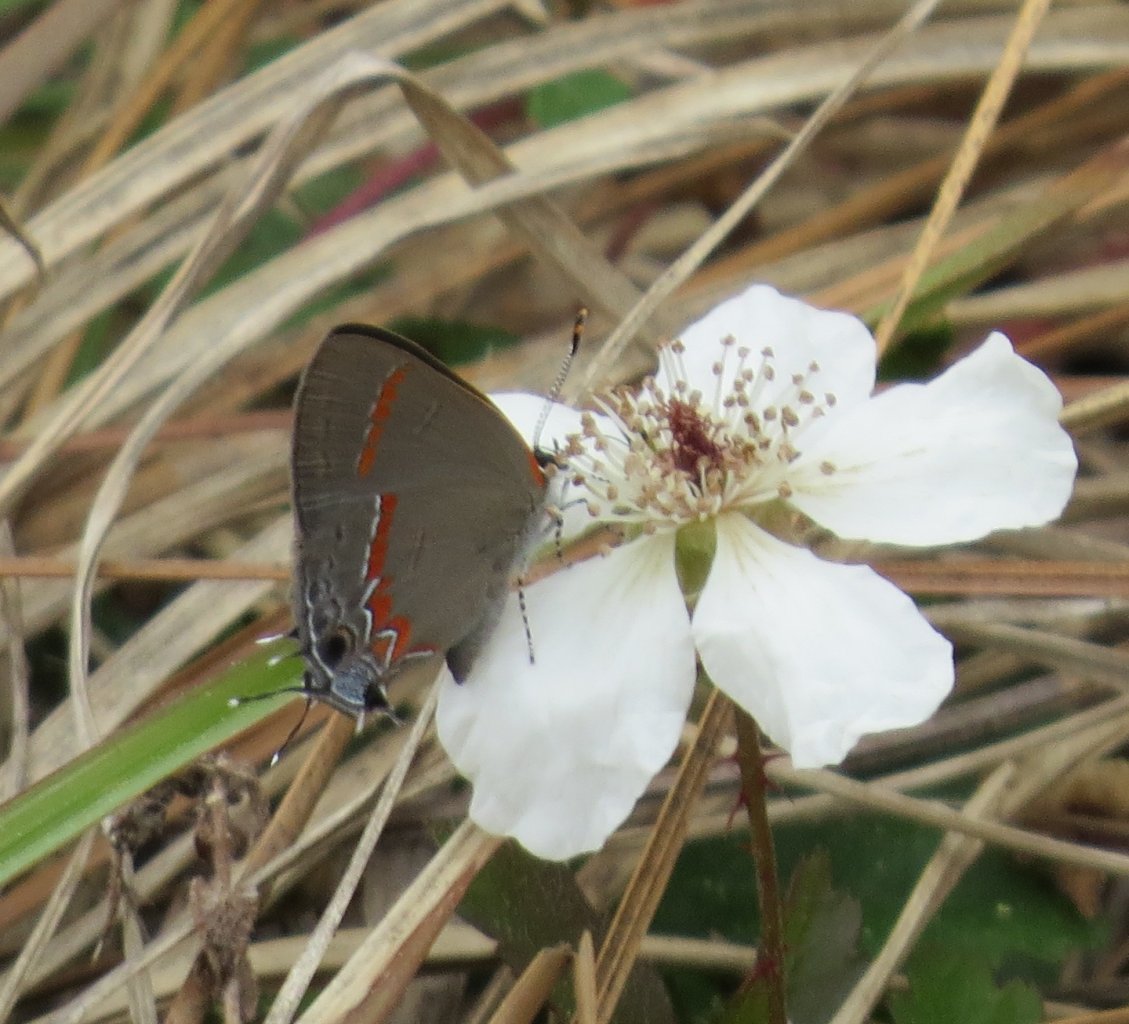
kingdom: Animalia
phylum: Arthropoda
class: Insecta
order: Lepidoptera
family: Lycaenidae
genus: Calycopis
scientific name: Calycopis cecrops
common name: Red-banded Hairstreak
